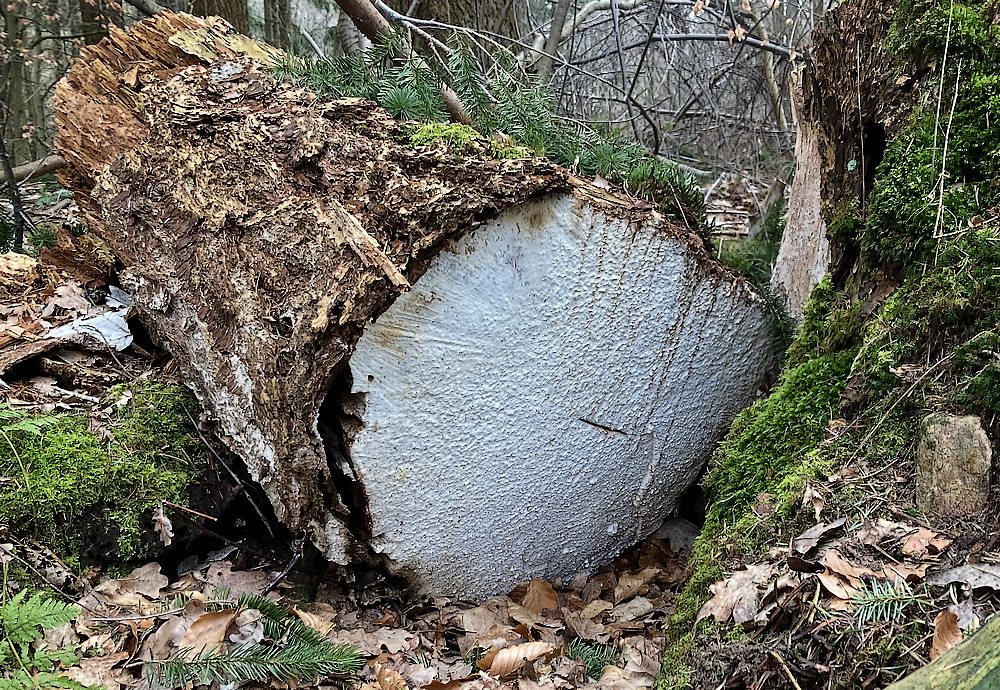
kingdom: Fungi
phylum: Basidiomycota
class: Agaricomycetes
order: Polyporales
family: Fomitopsidaceae
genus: Daedalea
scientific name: Daedalea xantha
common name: gul sejporesvamp
